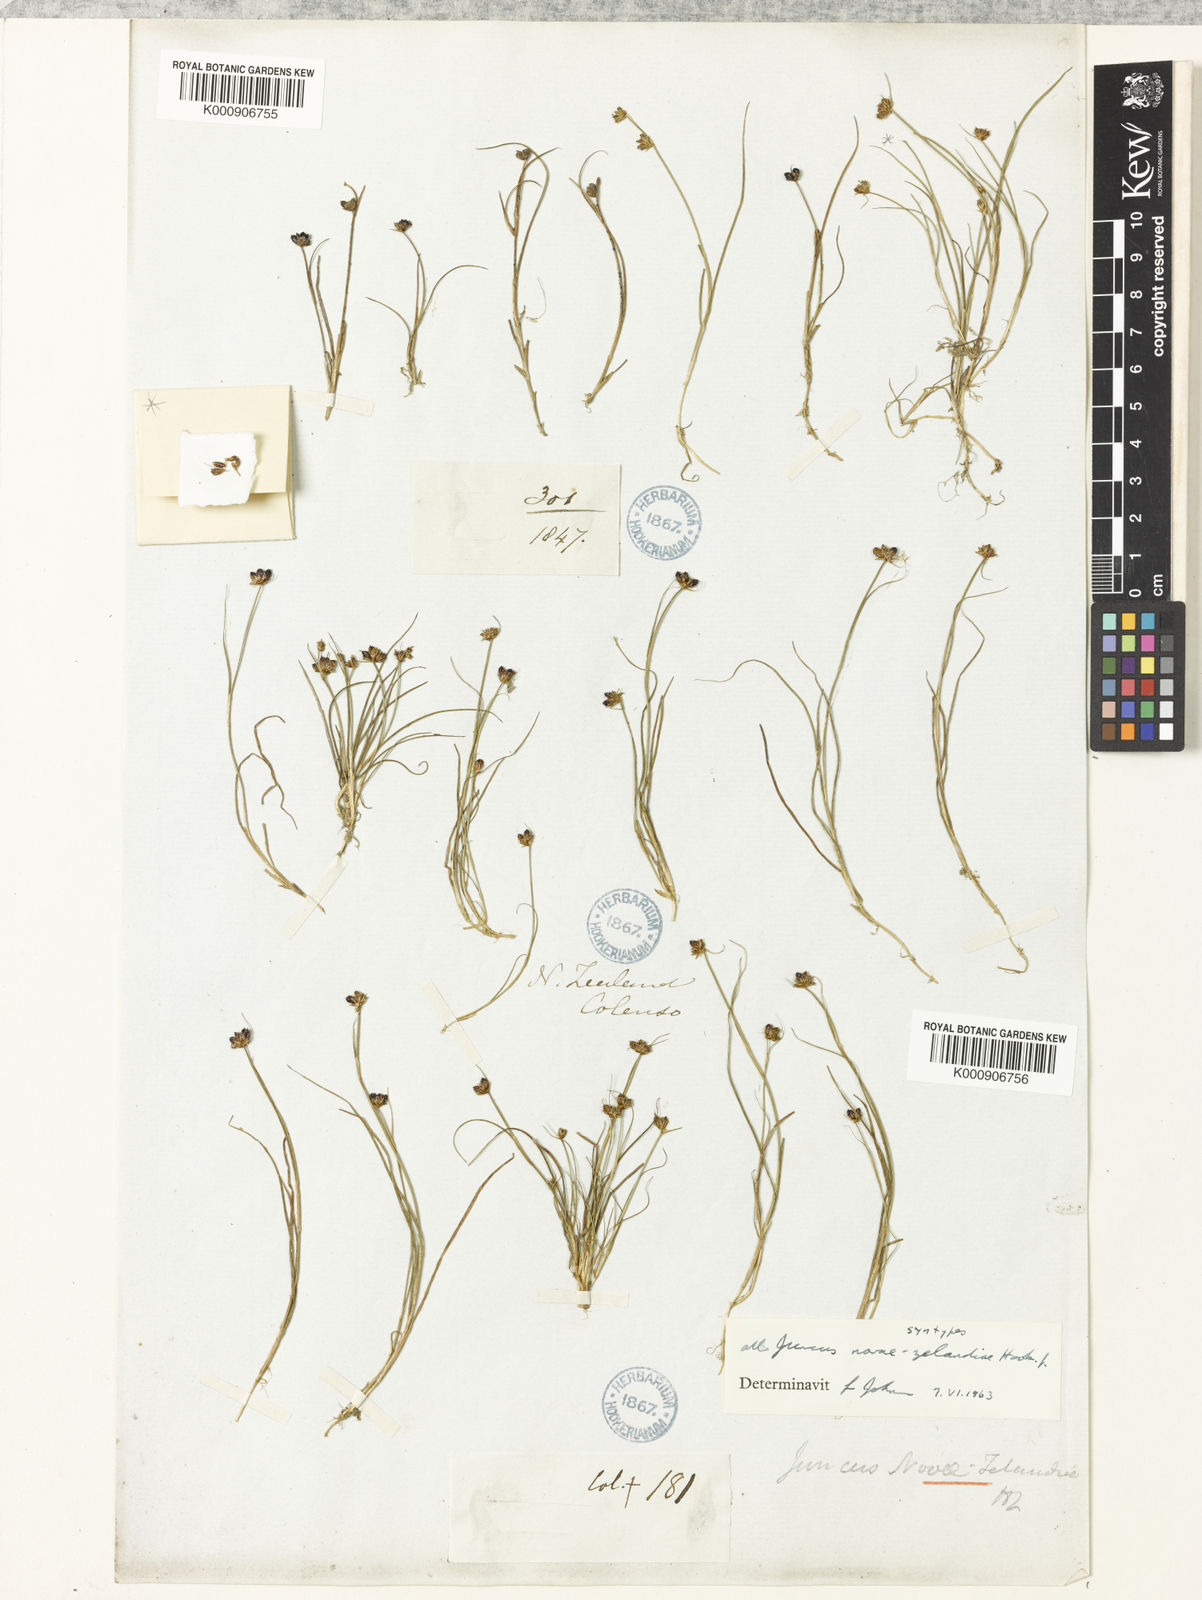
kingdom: Plantae
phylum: Tracheophyta
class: Liliopsida
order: Poales
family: Juncaceae
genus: Juncus
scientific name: Juncus novae-zelandiae
